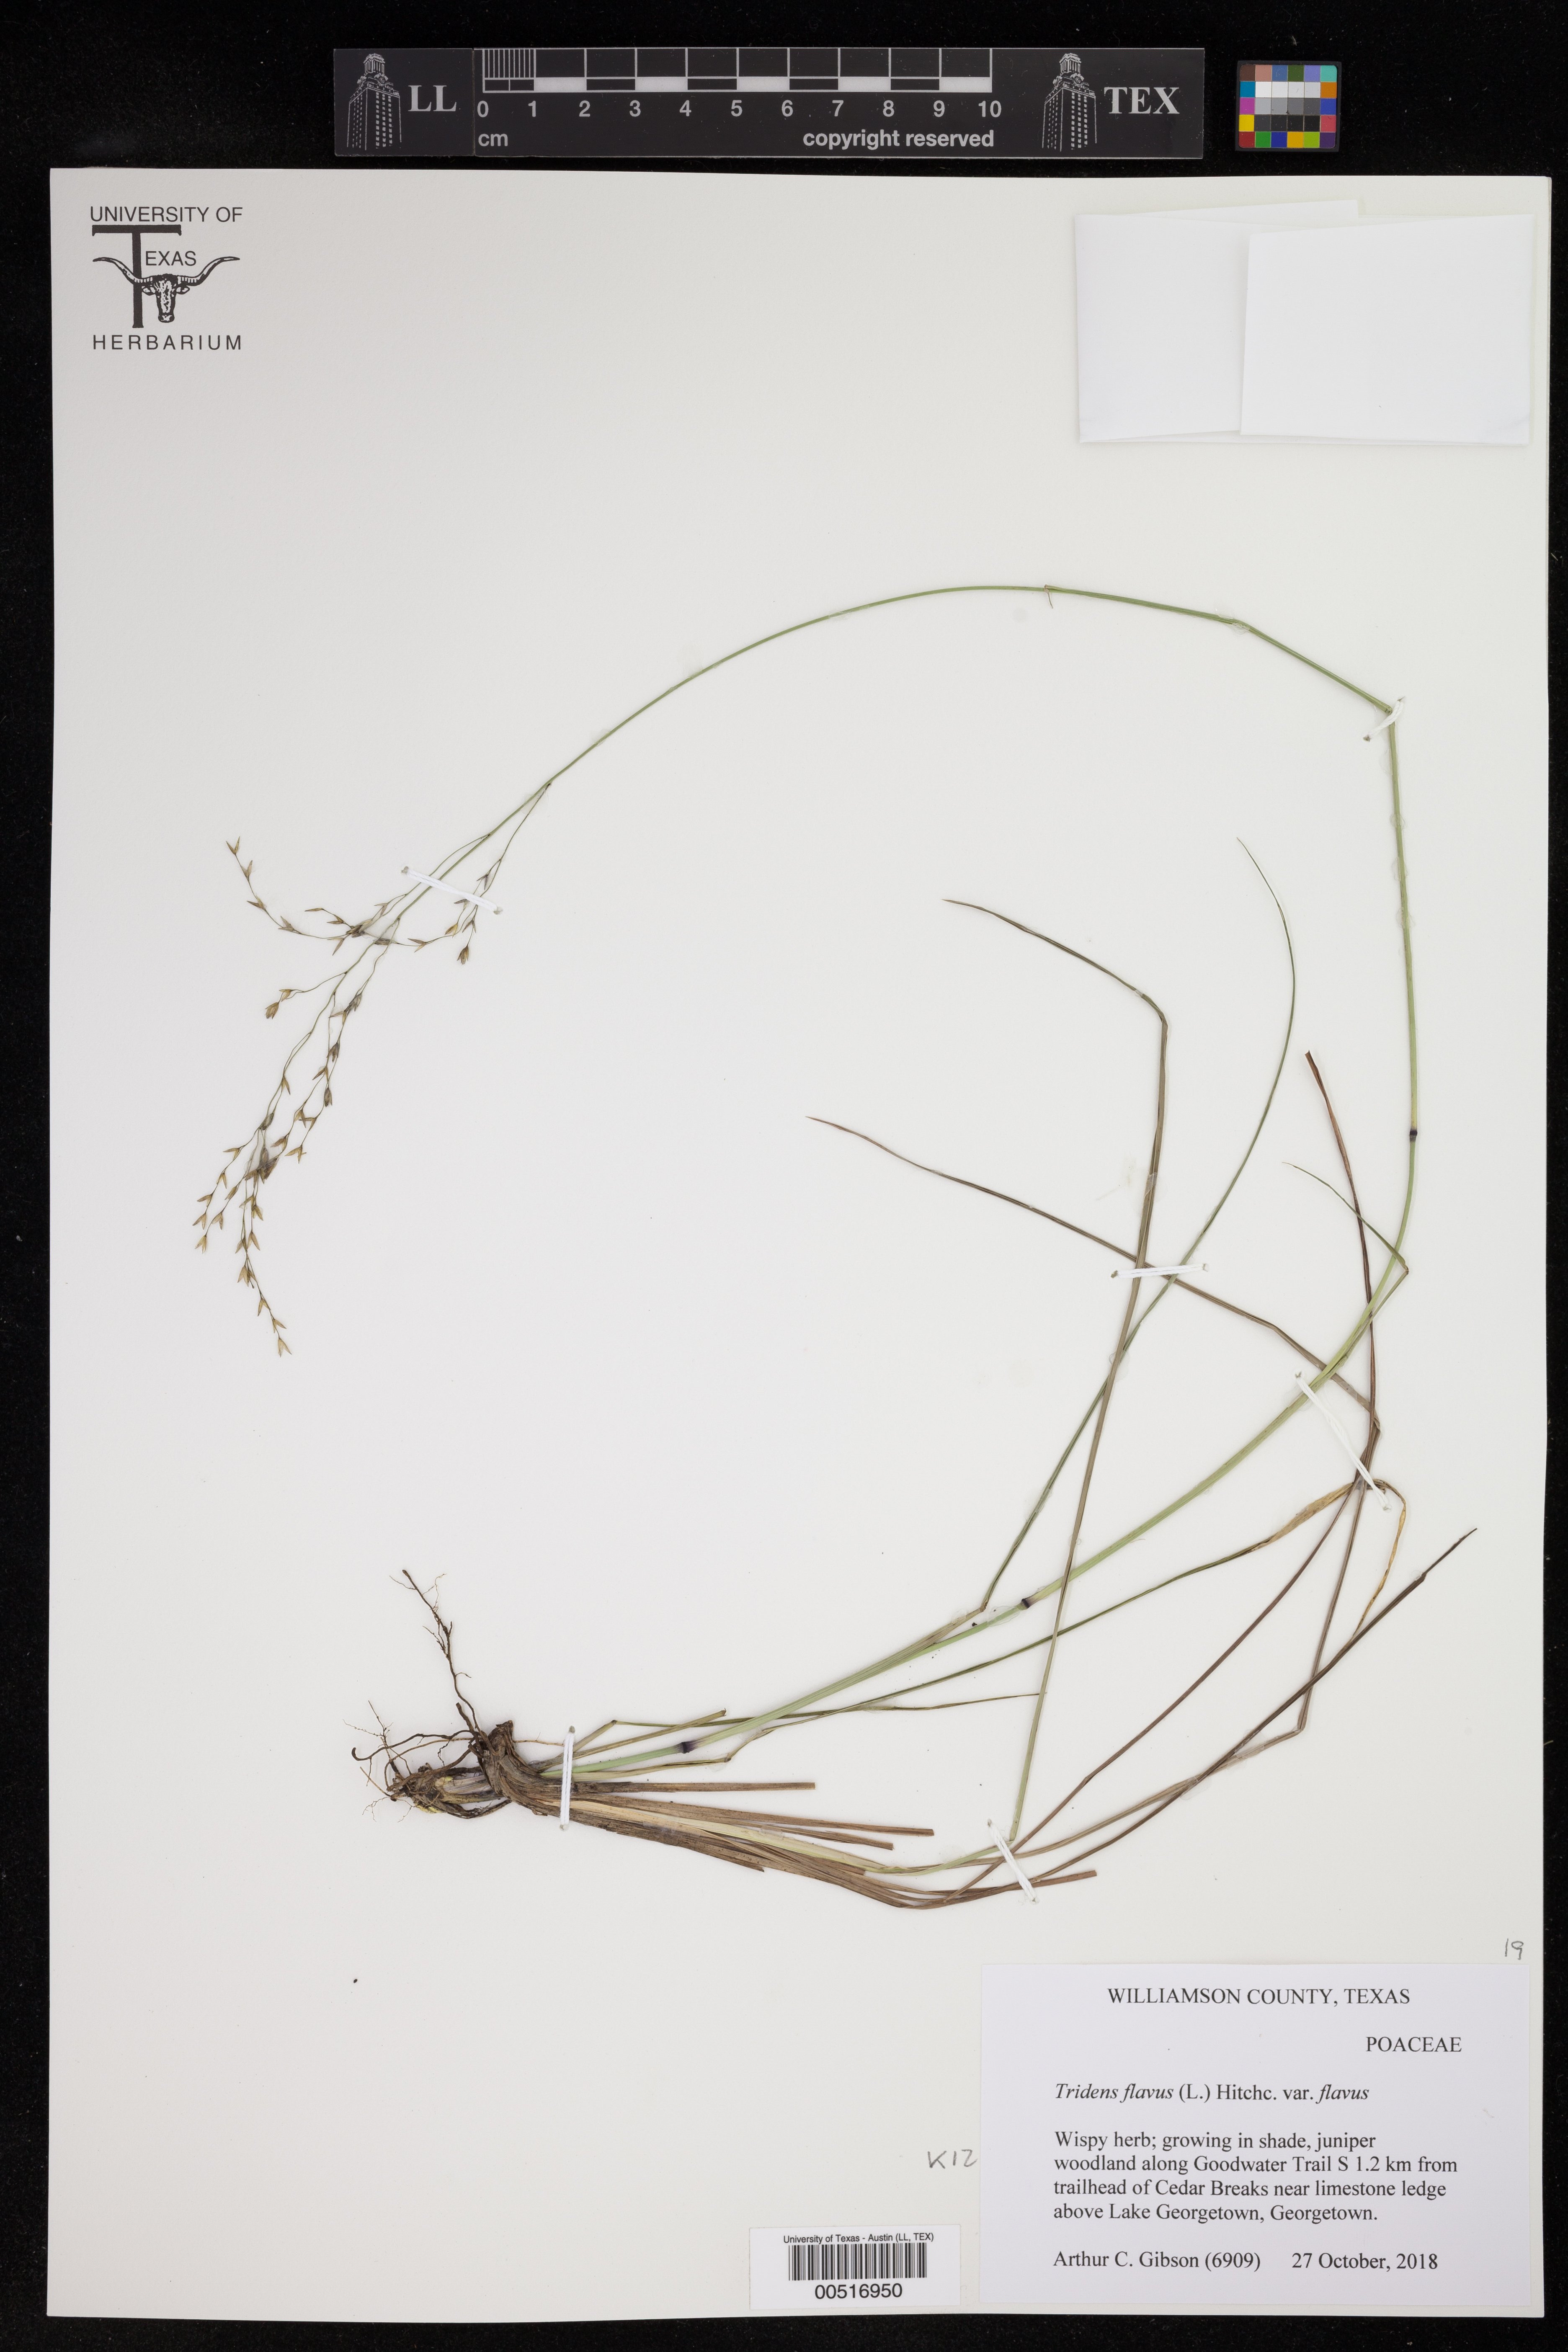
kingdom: Plantae
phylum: Tracheophyta
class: Liliopsida
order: Poales
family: Poaceae
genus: Tridens
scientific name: Tridens flavus
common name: Purpletop
